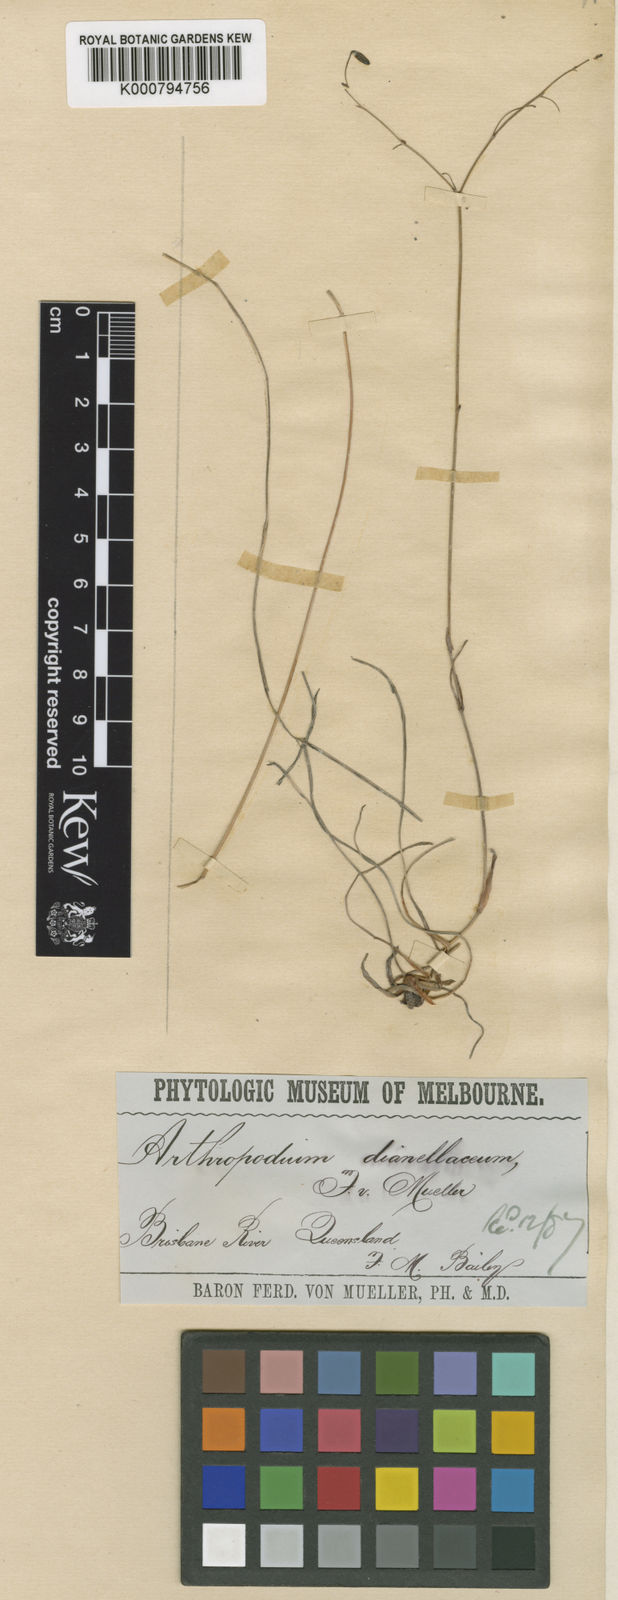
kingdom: Plantae
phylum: Tracheophyta
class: Liliopsida
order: Asparagales
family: Asphodelaceae
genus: Dianella
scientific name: Dianella rara
